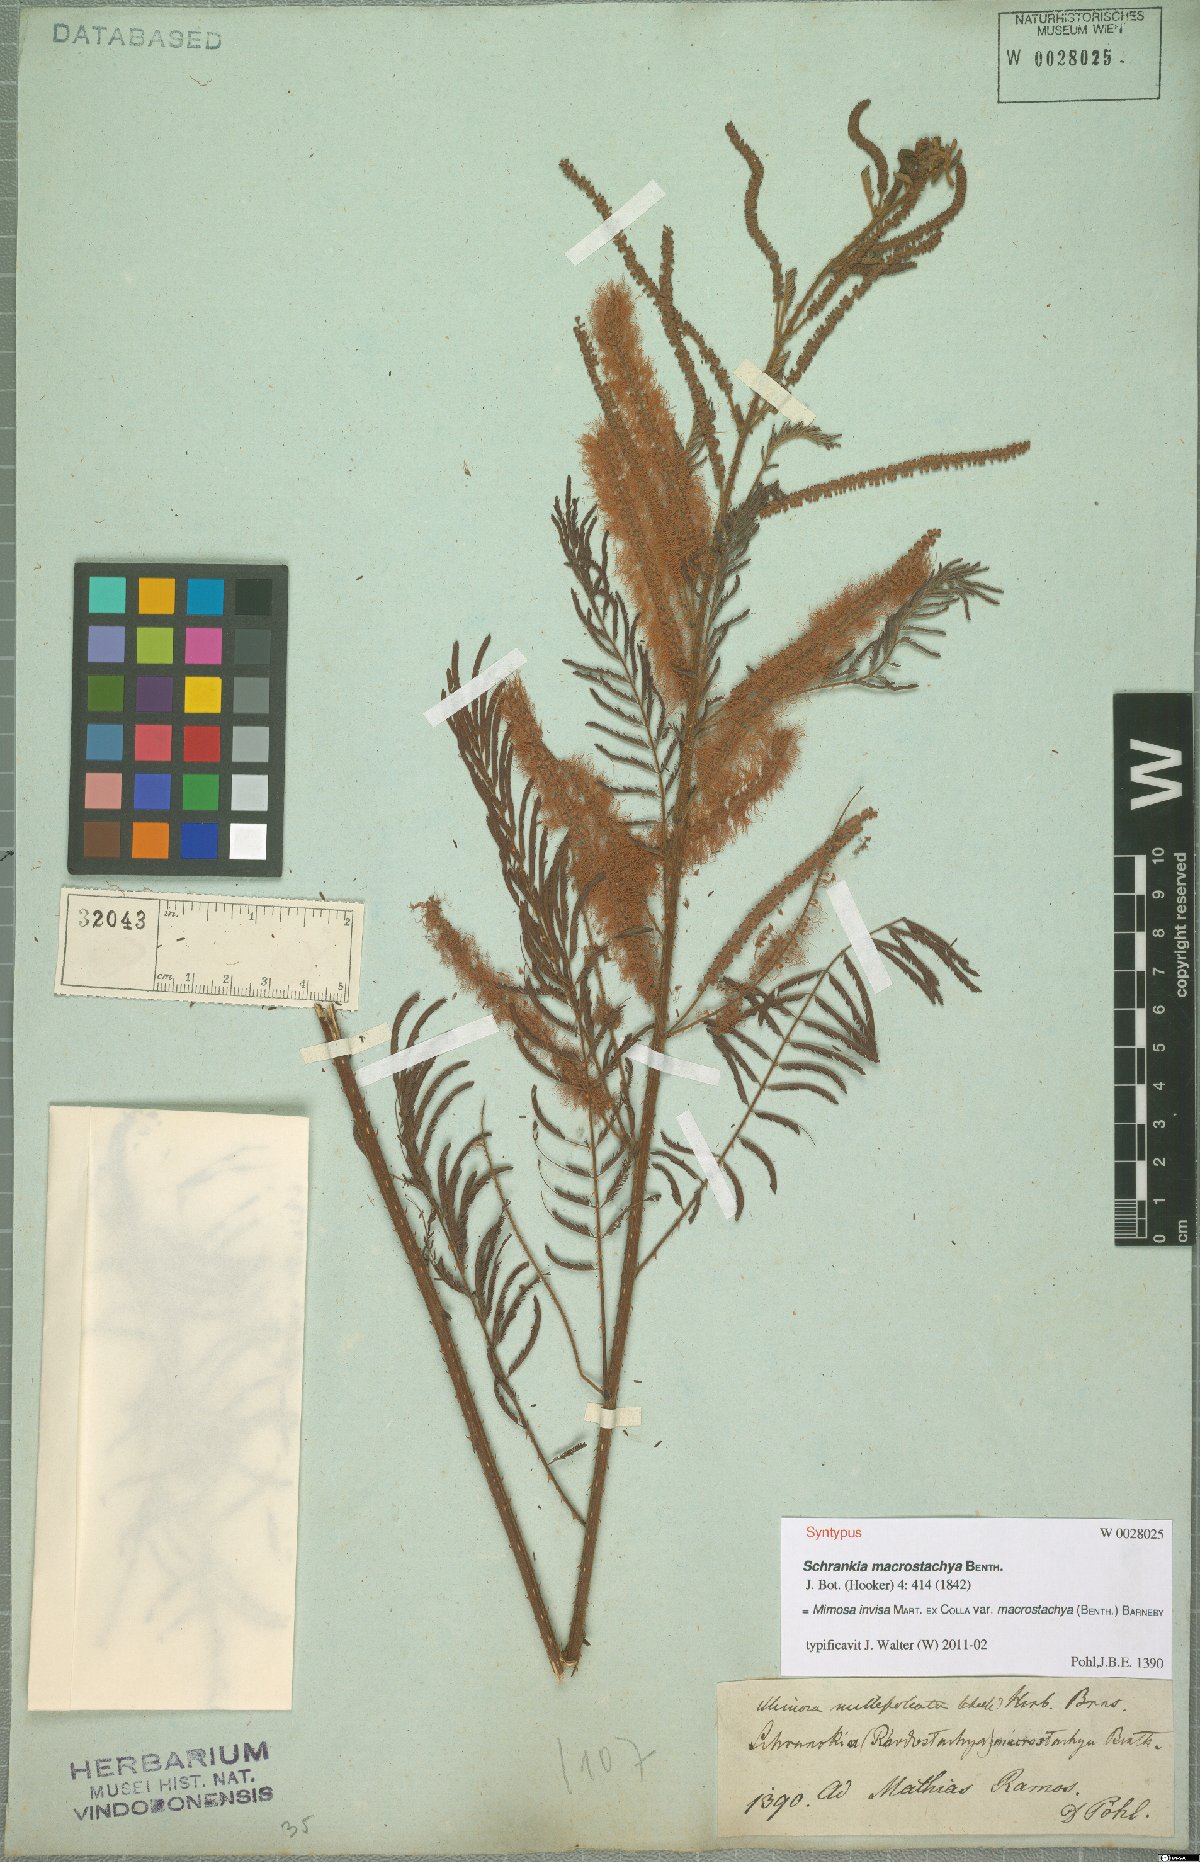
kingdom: Plantae
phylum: Tracheophyta
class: Magnoliopsida
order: Fabales
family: Fabaceae
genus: Mimosa
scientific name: Mimosa invisa
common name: Creeping sensitive-plant
